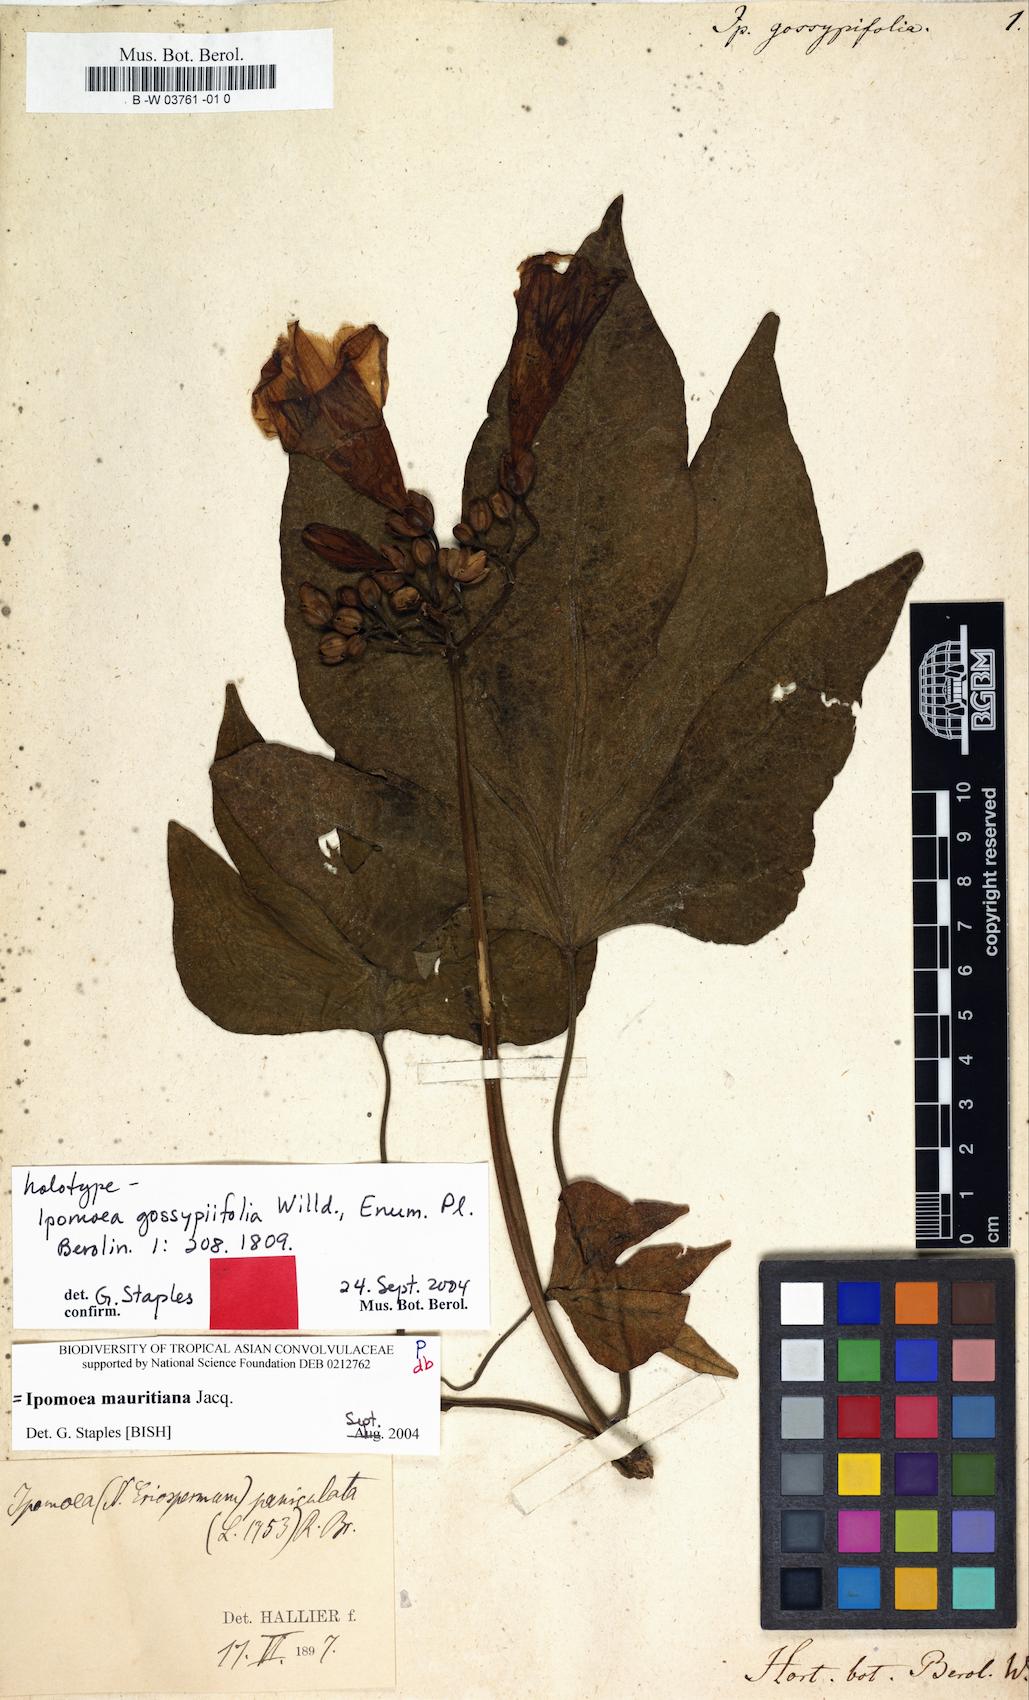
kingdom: Plantae
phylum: Tracheophyta
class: Magnoliopsida
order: Solanales
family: Convolvulaceae
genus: Ipomoea
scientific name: Ipomoea mauritiana
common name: Mauritanian convolvulus
